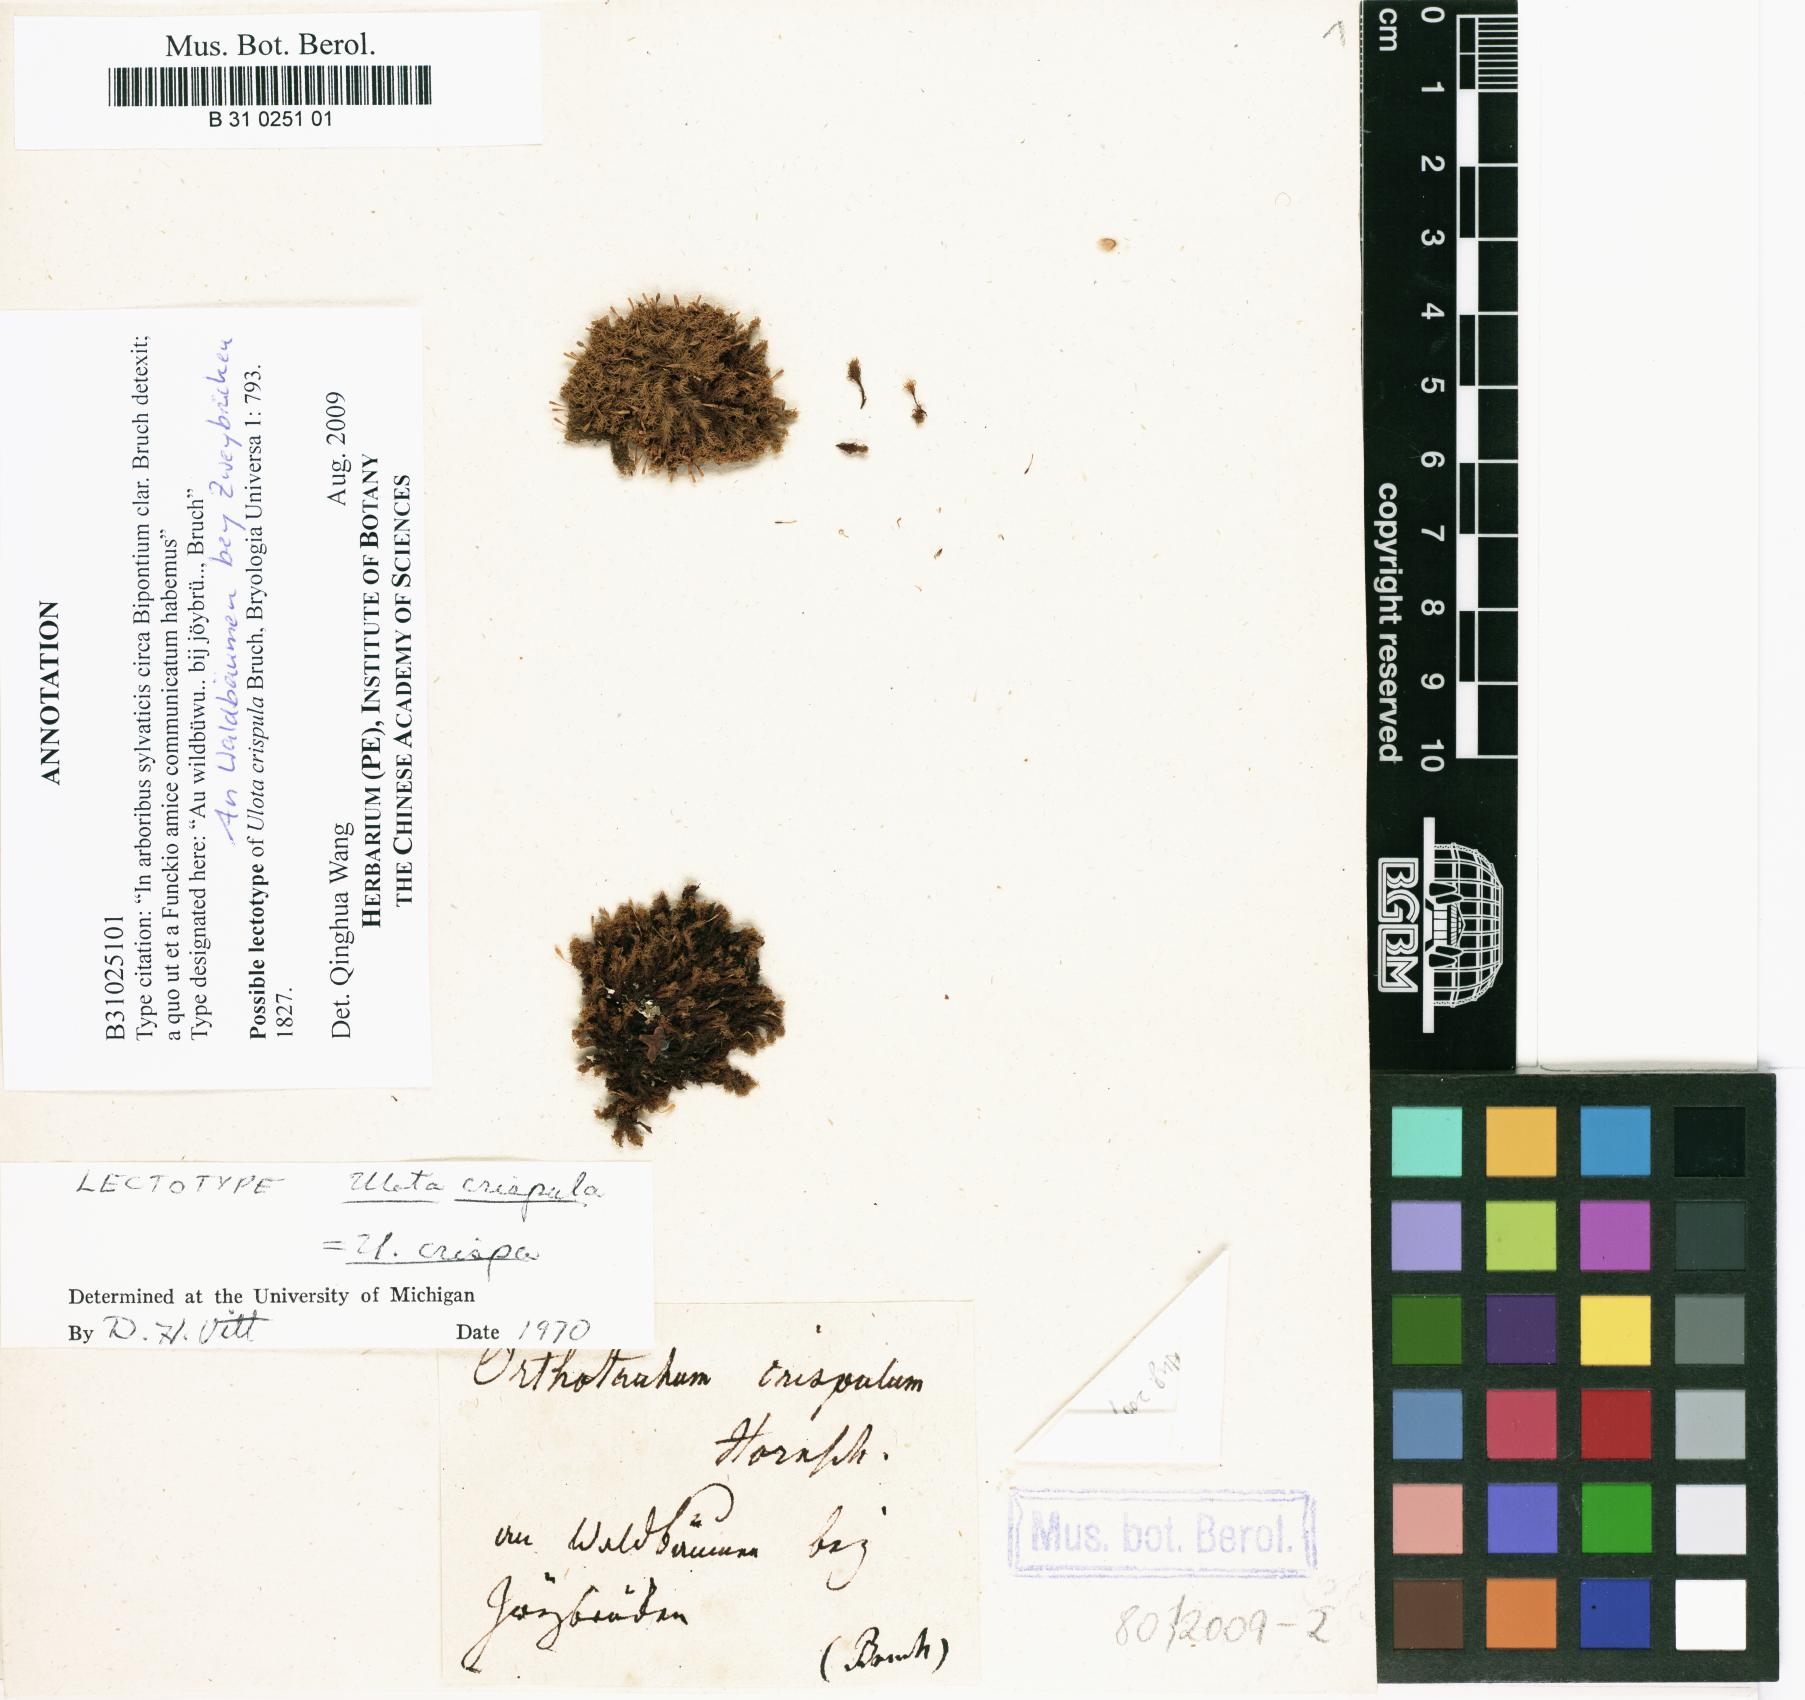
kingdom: Plantae
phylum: Bryophyta
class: Bryopsida
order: Orthotrichales
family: Orthotrichaceae
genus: Ulota
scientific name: Ulota crispula
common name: Crisped pincushion
